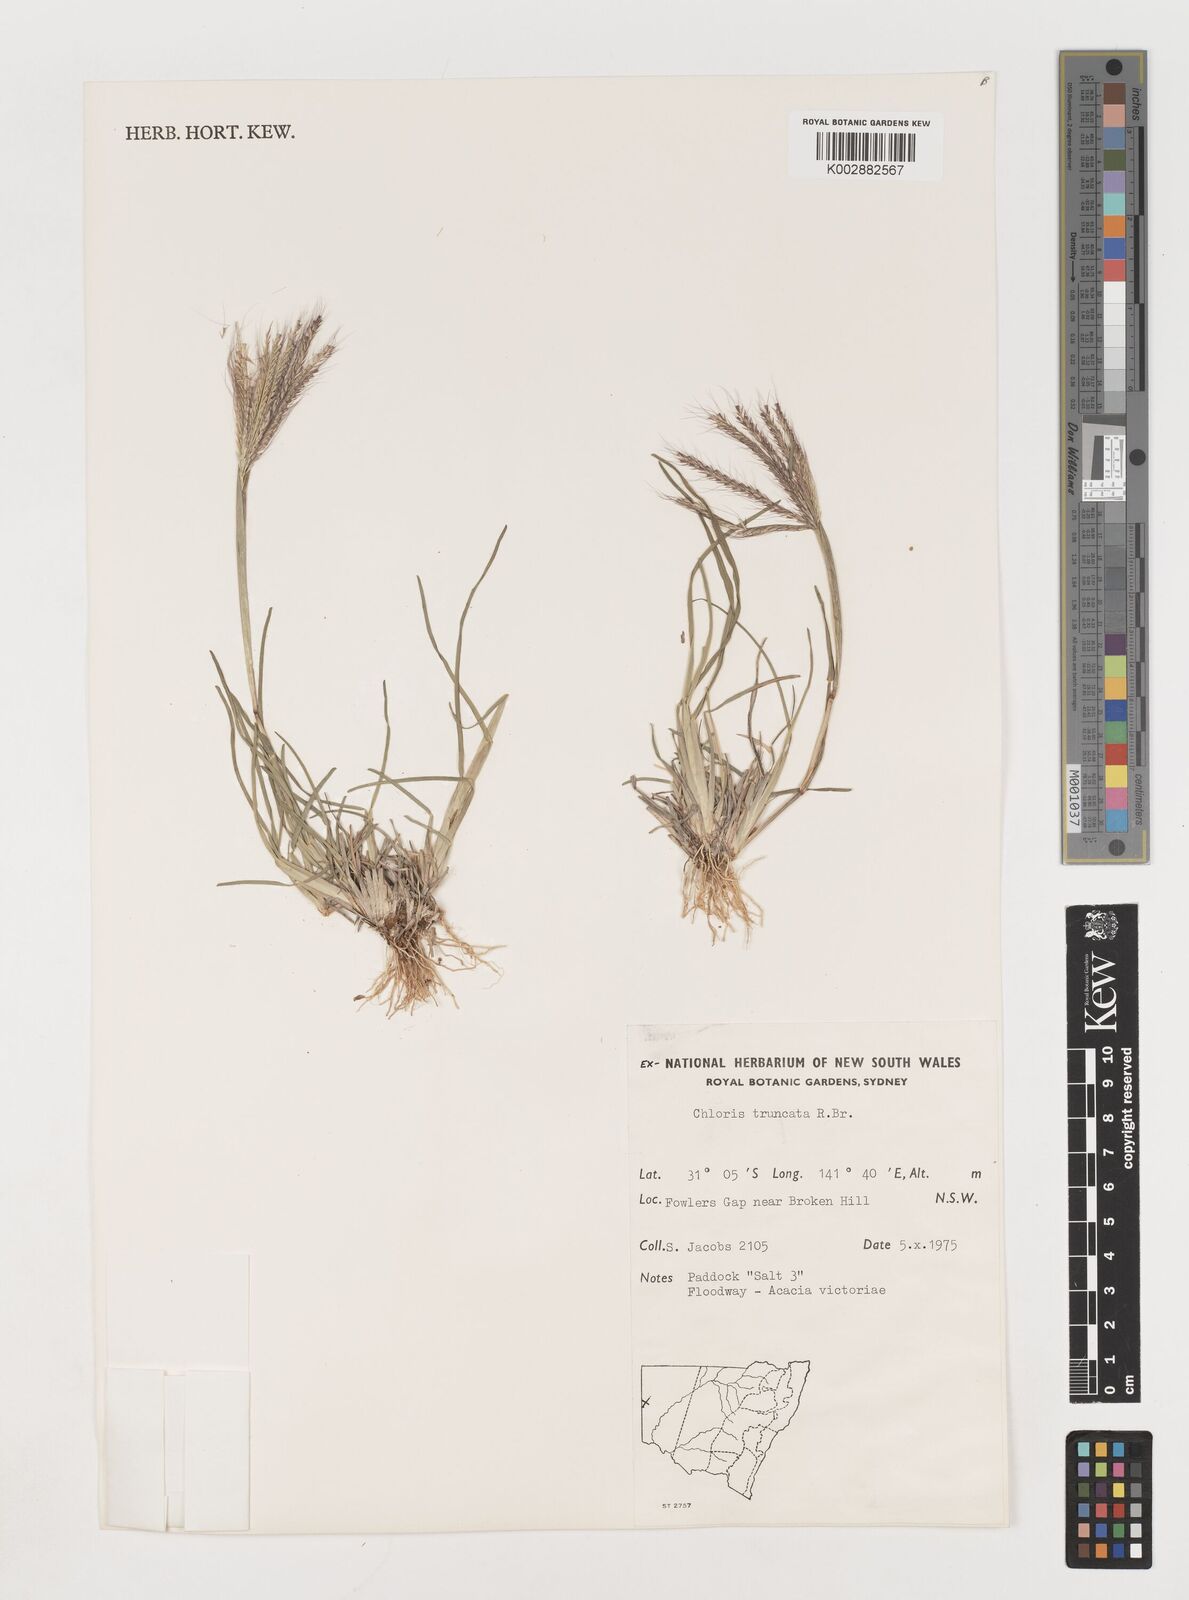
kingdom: Plantae
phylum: Tracheophyta
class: Liliopsida
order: Poales
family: Poaceae
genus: Chloris
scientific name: Chloris truncata
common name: Windmill-grass
